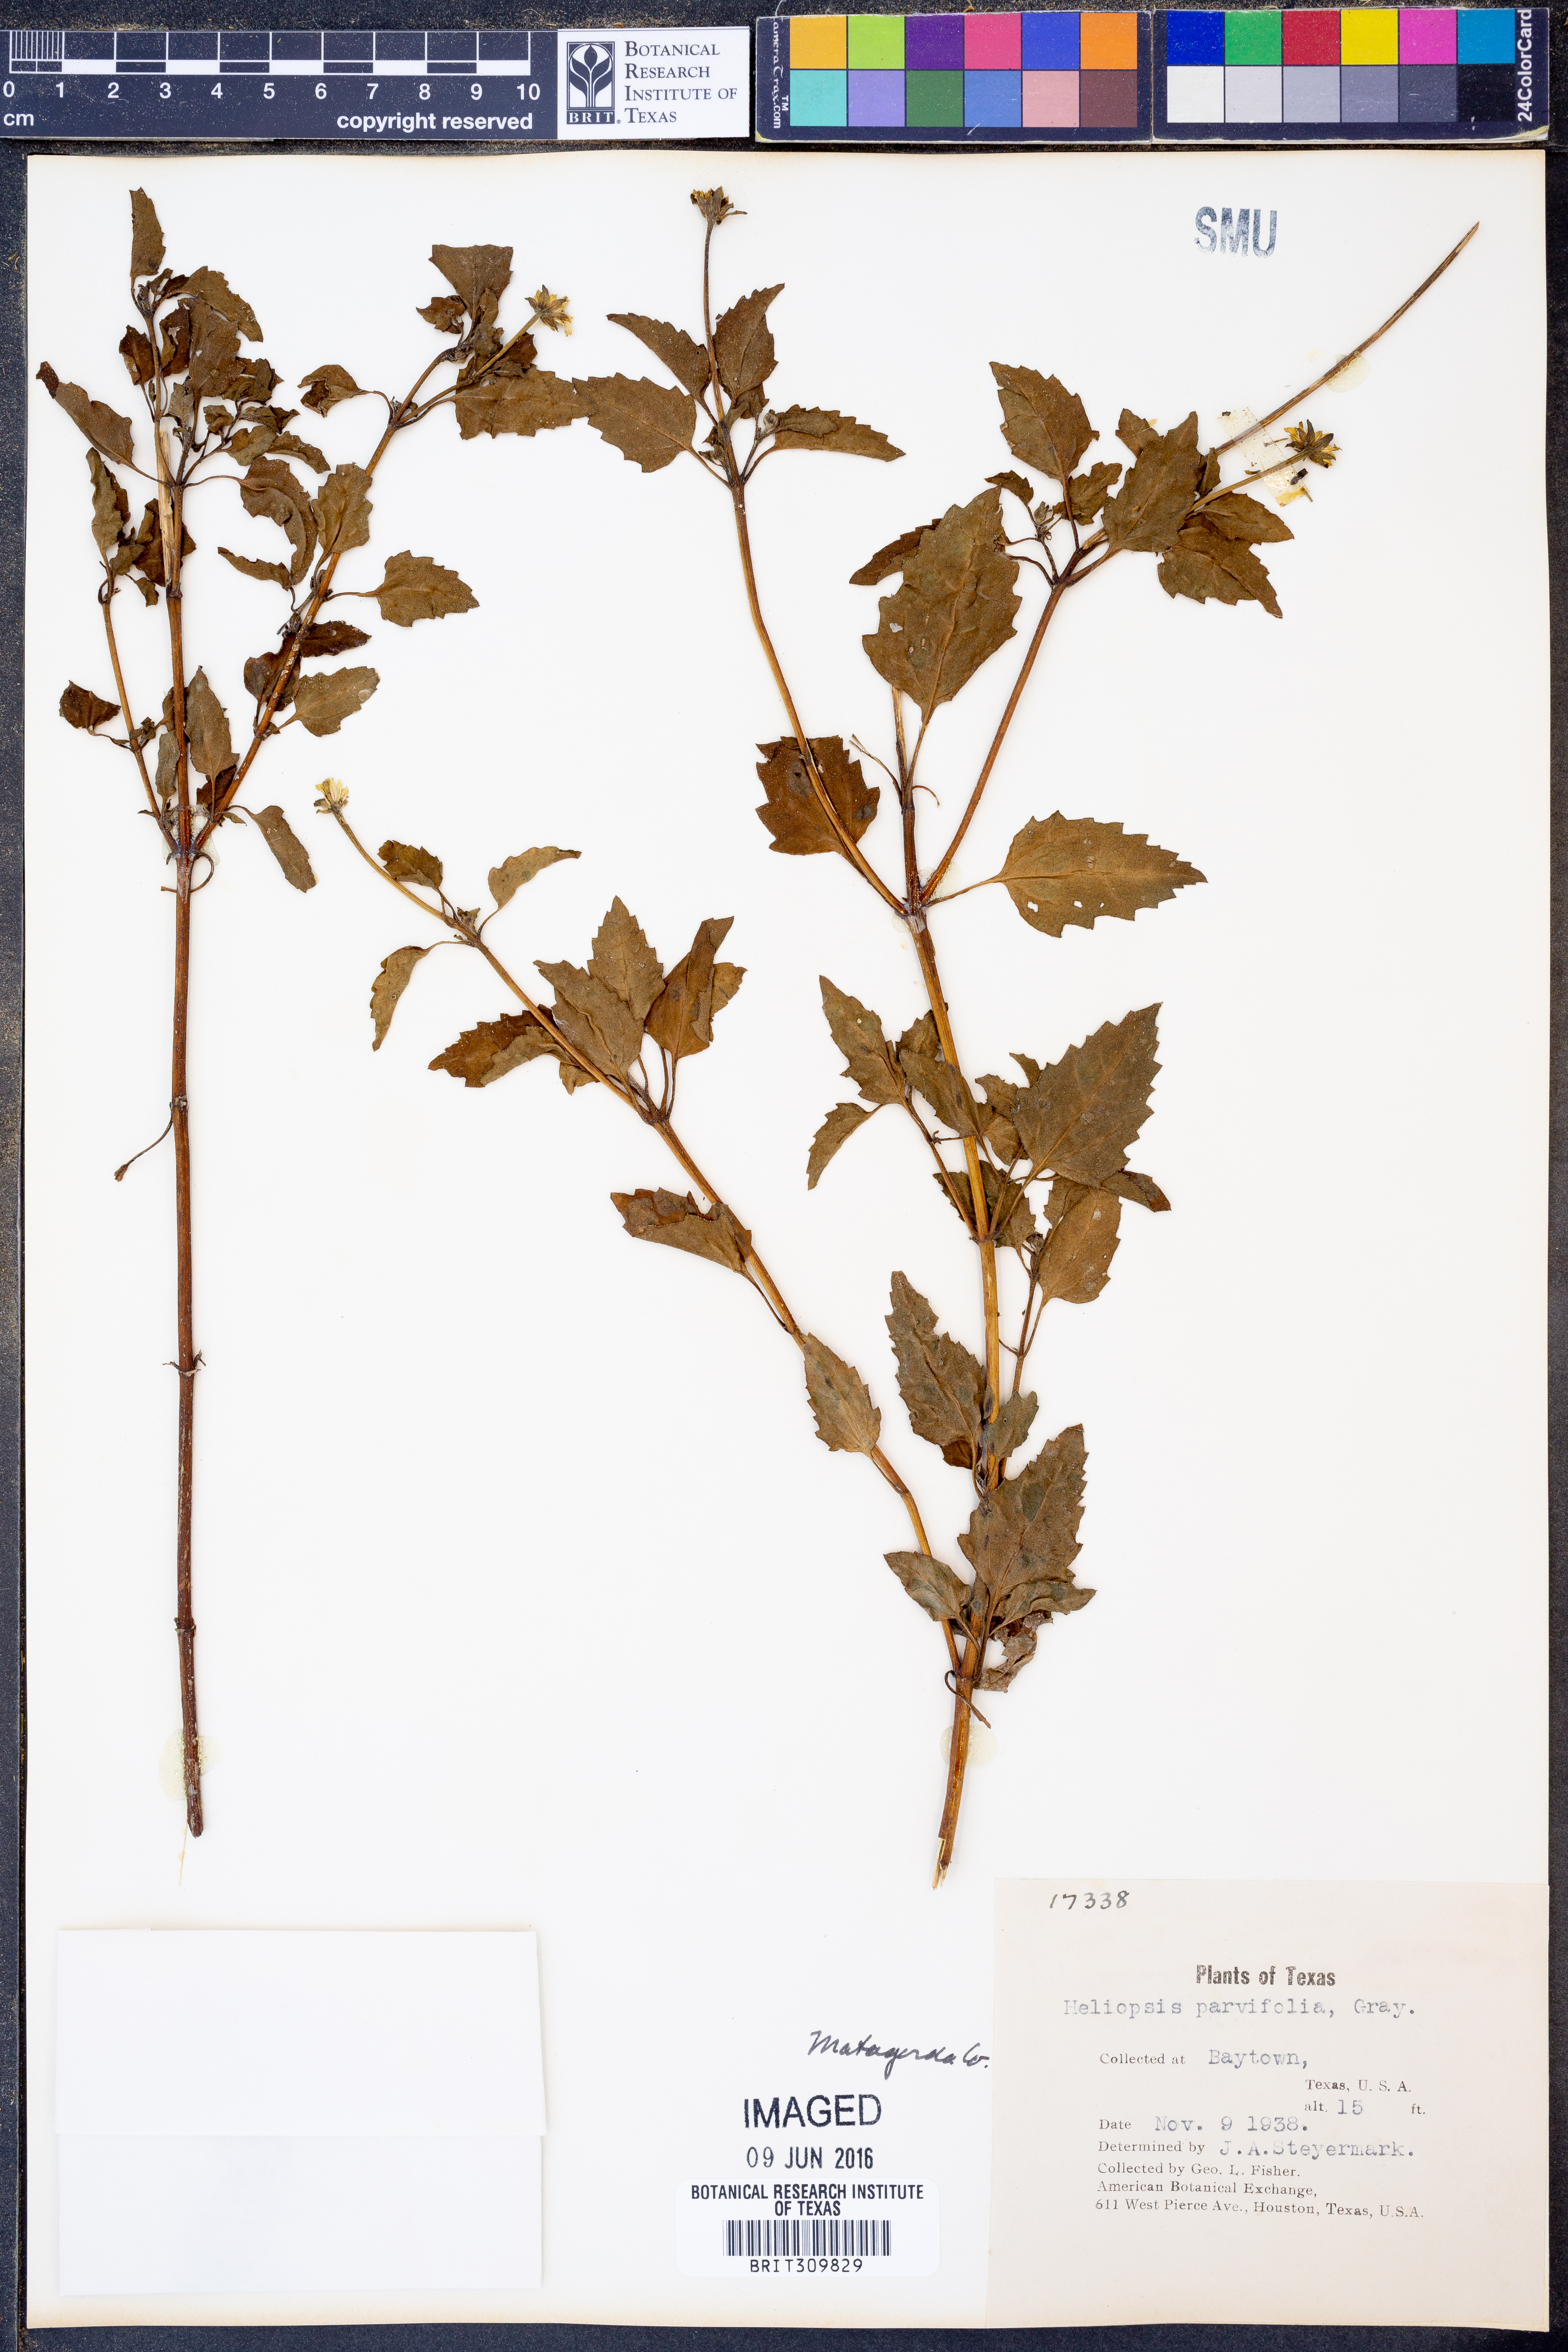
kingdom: Plantae
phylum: Tracheophyta
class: Magnoliopsida
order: Asterales
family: Asteraceae
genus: Heliopsis
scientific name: Heliopsis parvifolia
